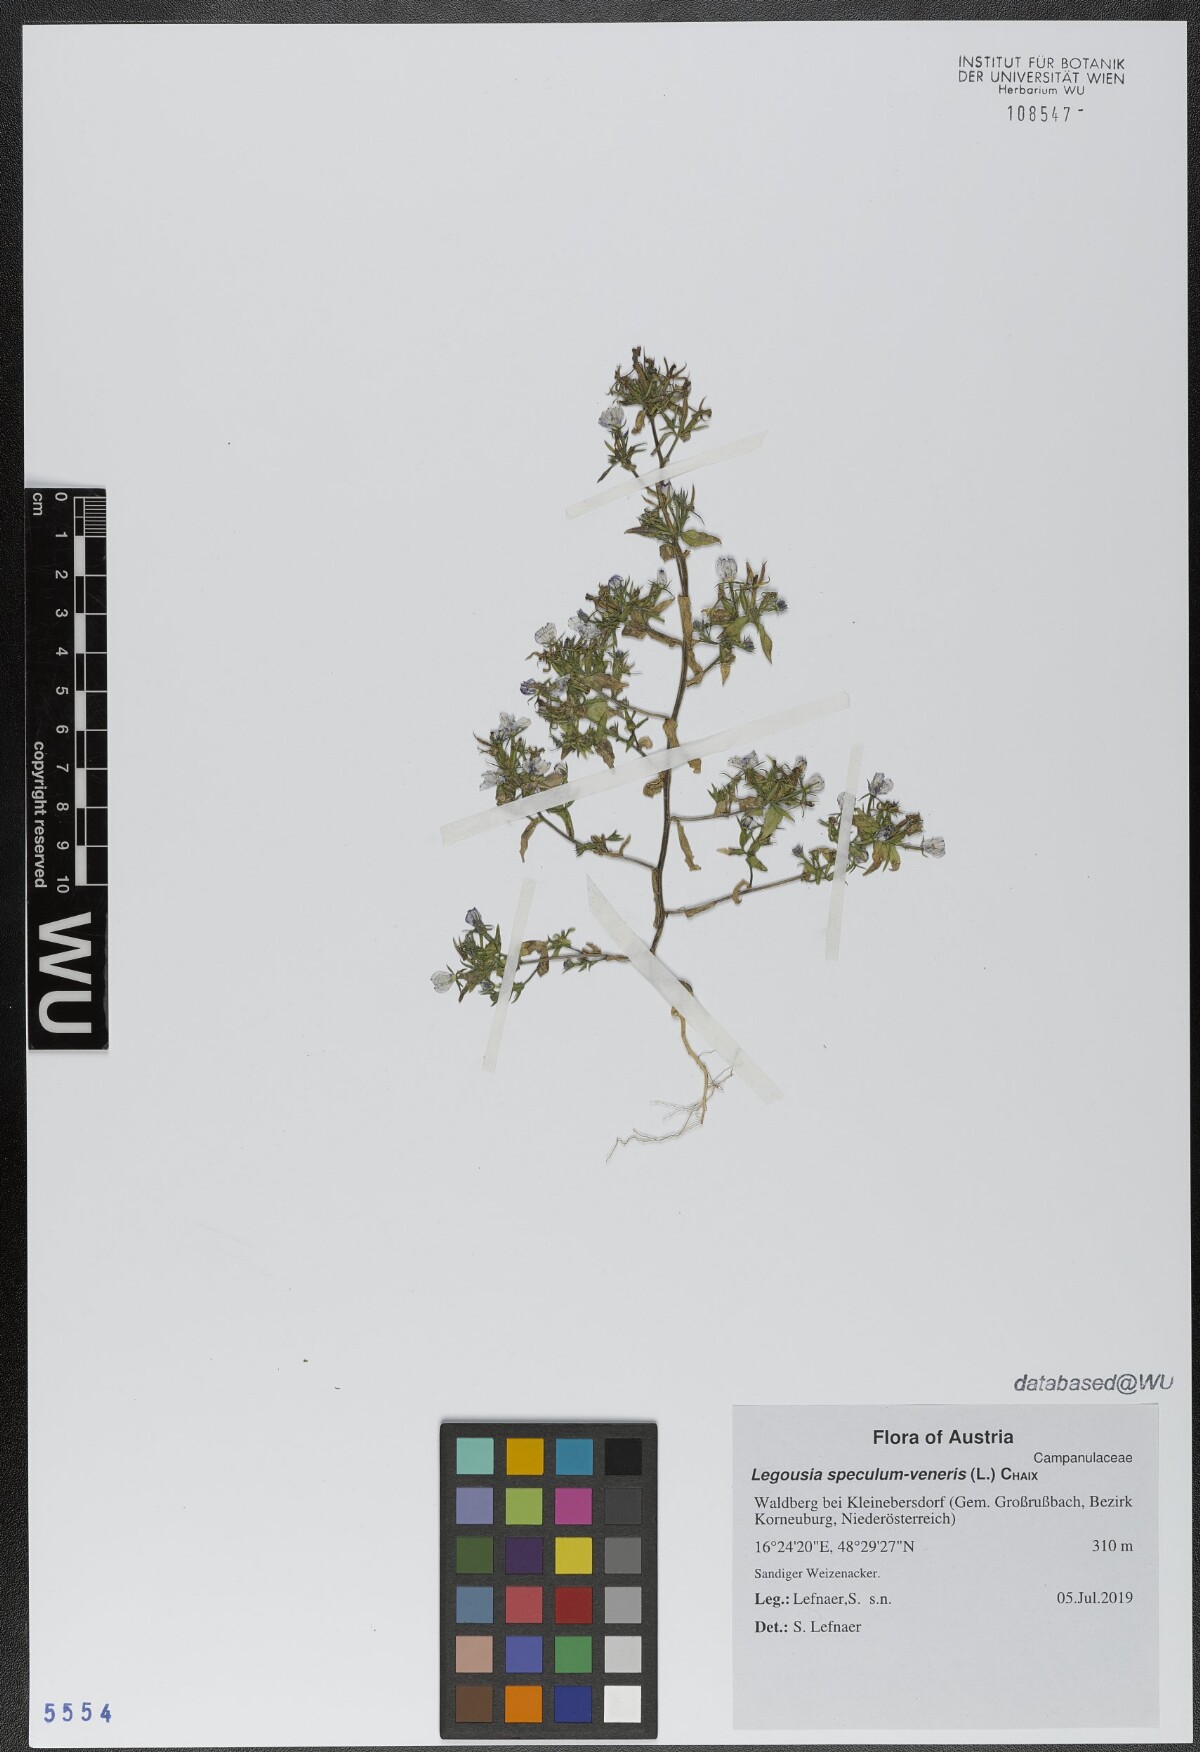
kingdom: Plantae
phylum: Tracheophyta
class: Magnoliopsida
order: Asterales
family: Campanulaceae
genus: Legousia
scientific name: Legousia speculum-veneris
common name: Large venus's-looking-glass
